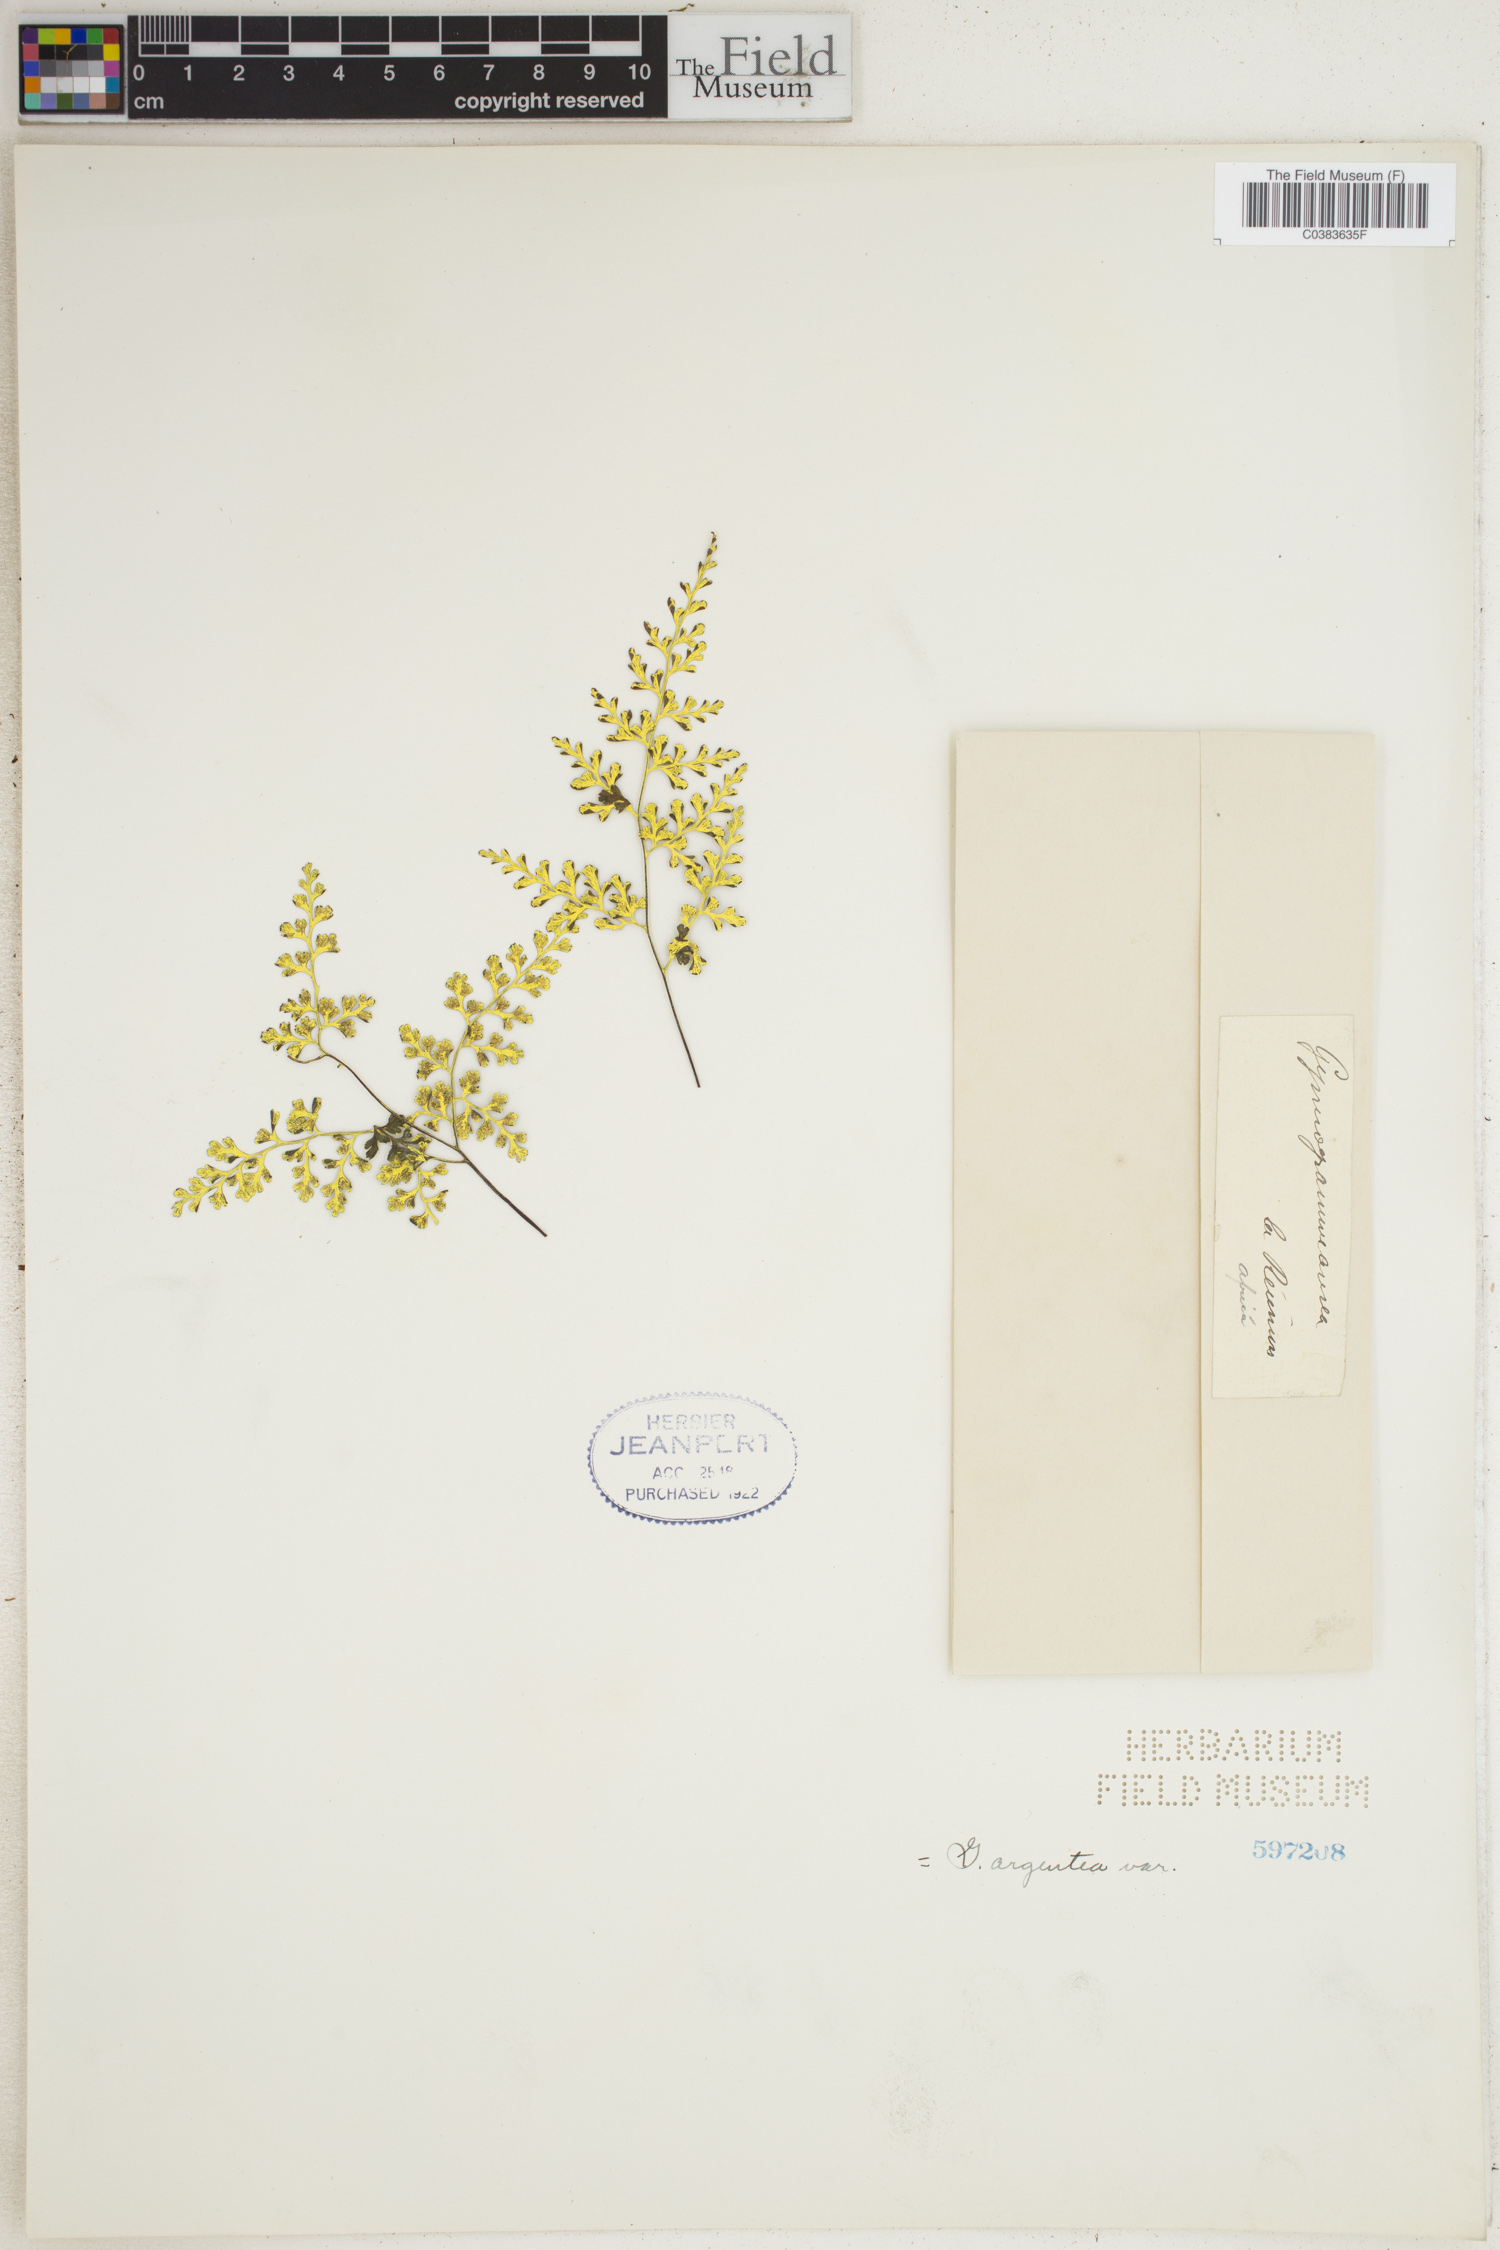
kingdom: Plantae
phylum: Tracheophyta
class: Polypodiopsida
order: Polypodiales
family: Pteridaceae
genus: Cerosora
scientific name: Cerosora argentea
